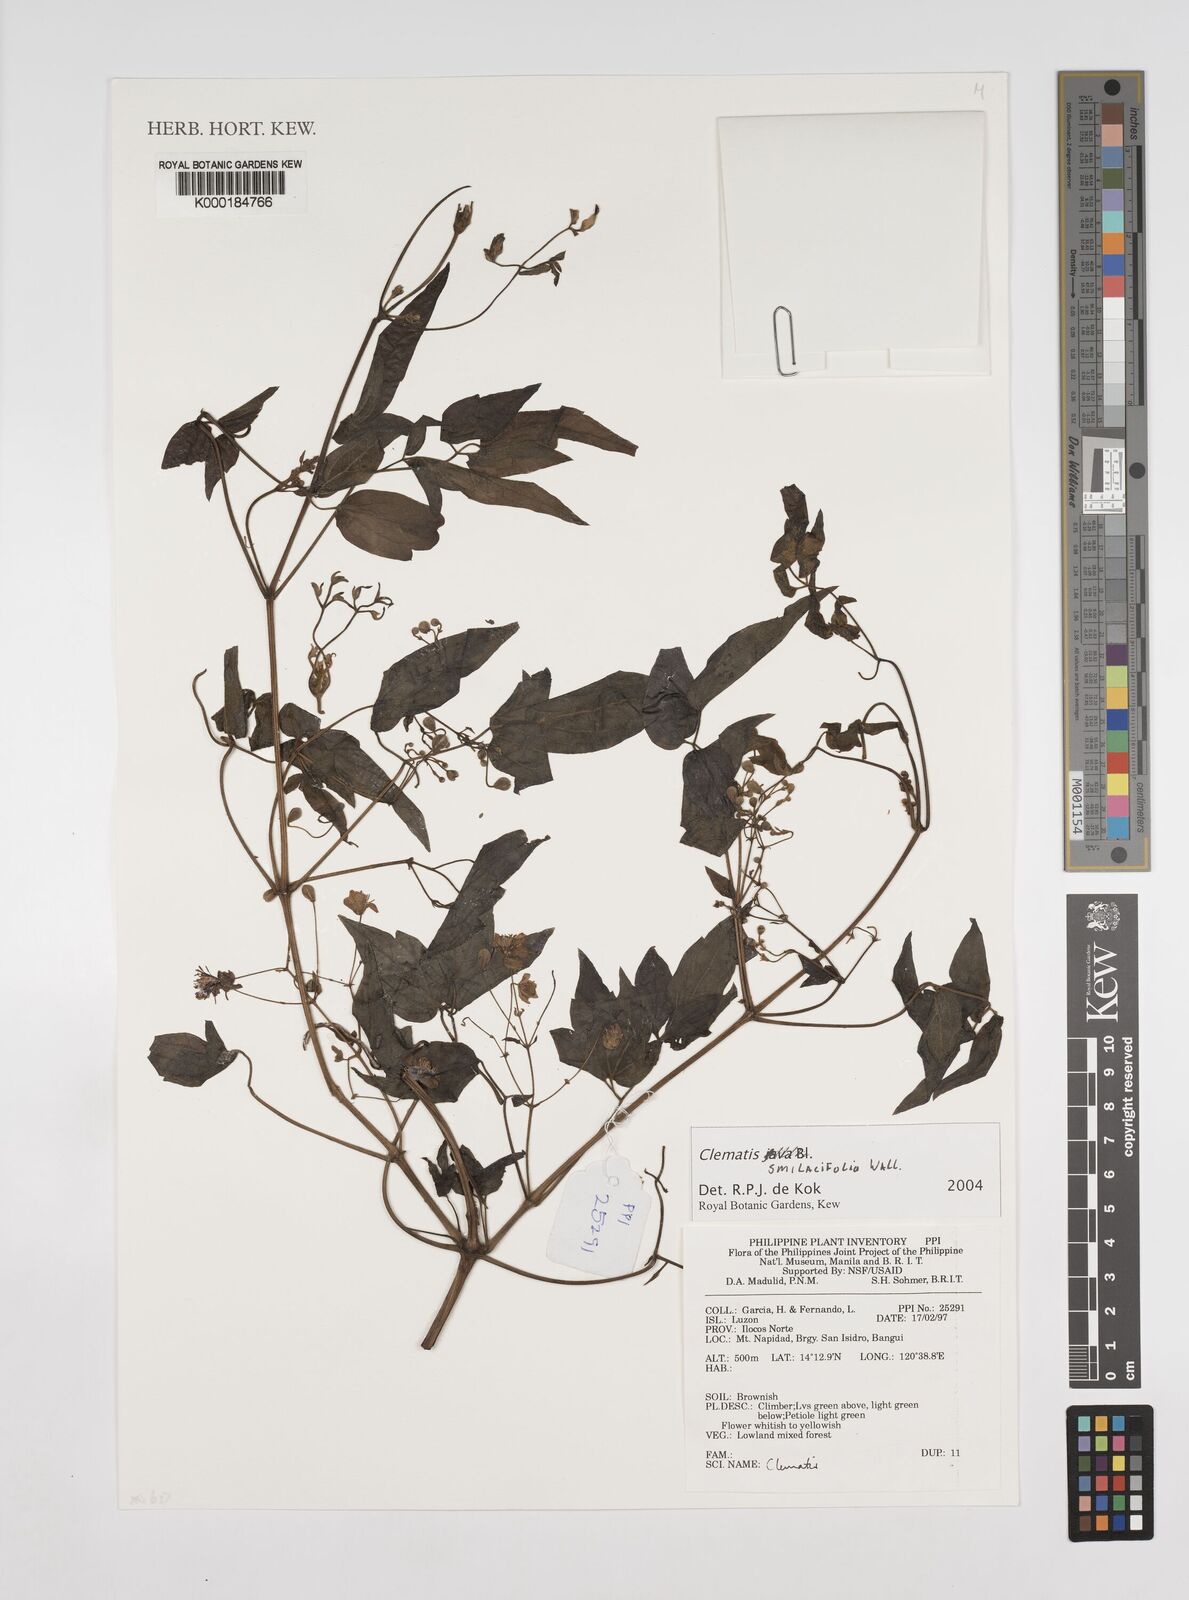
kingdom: Plantae
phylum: Tracheophyta
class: Magnoliopsida
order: Ranunculales
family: Ranunculaceae
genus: Clematis
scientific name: Clematis smilacifolia
